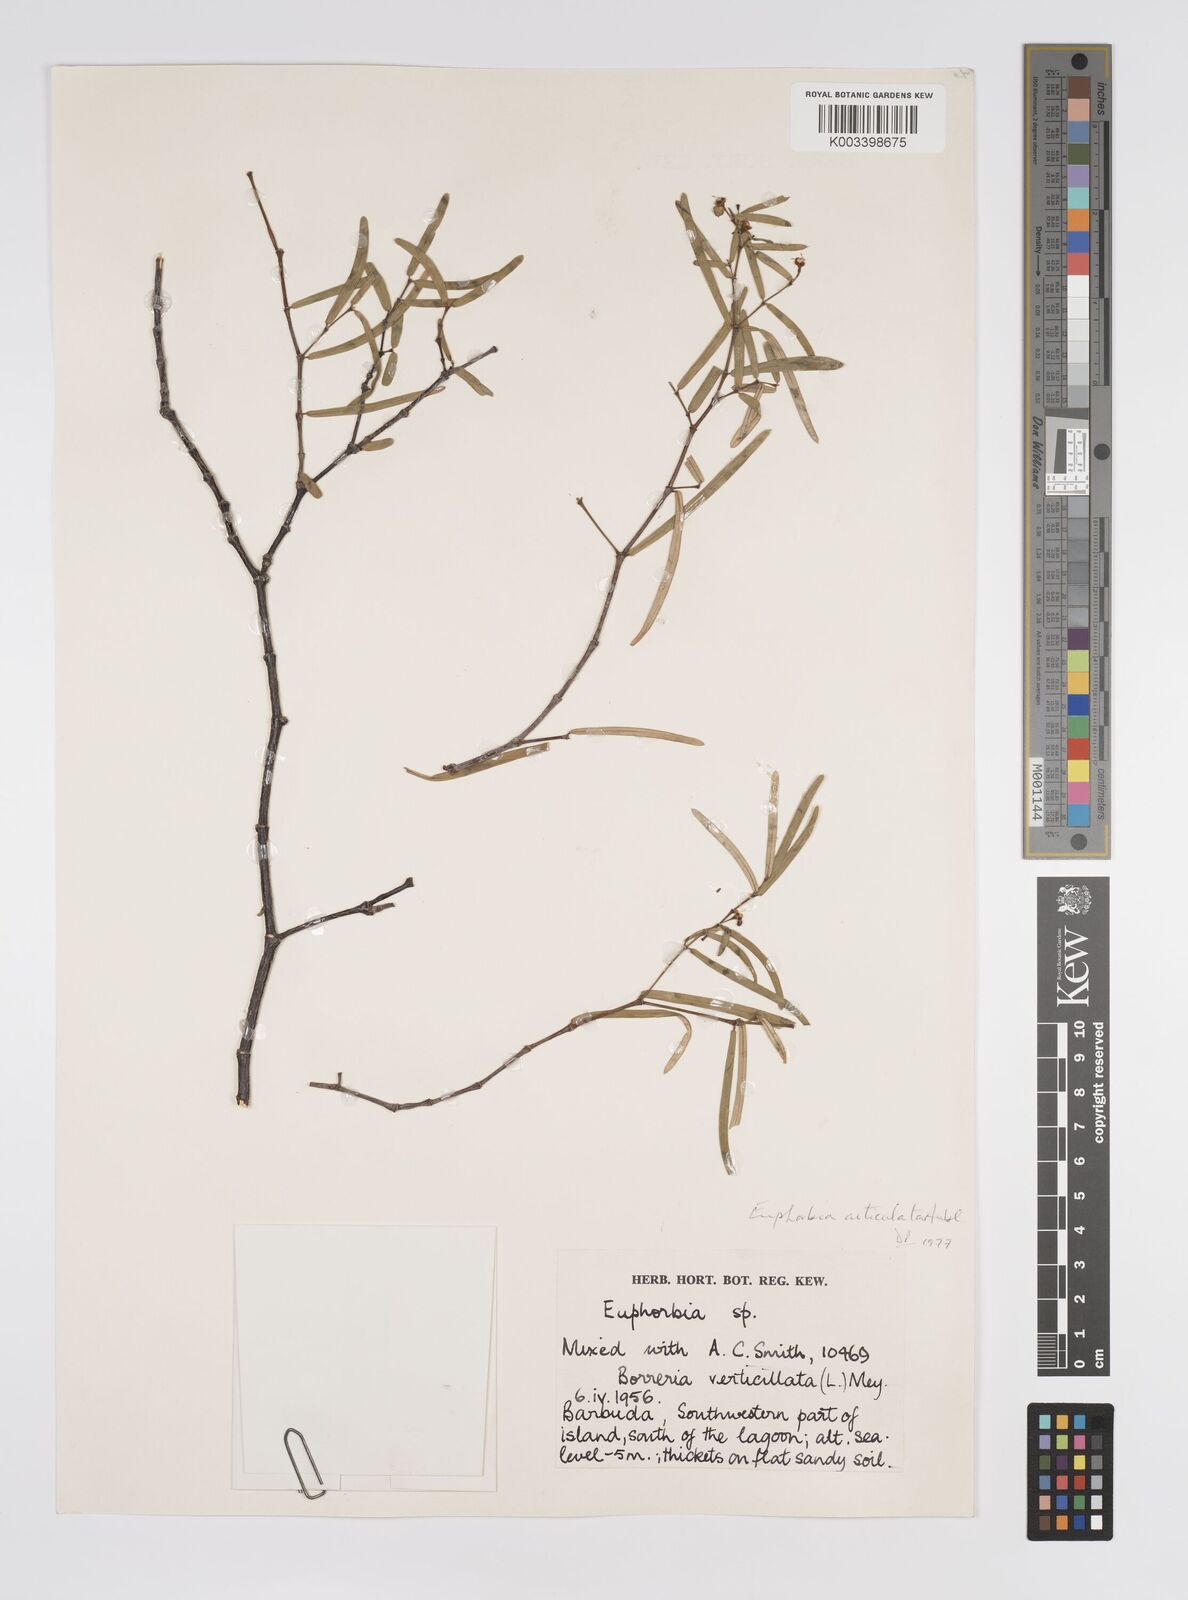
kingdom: Plantae
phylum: Tracheophyta
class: Magnoliopsida
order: Malpighiales
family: Euphorbiaceae
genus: Euphorbia
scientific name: Euphorbia articulata
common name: Jointed sandmat
